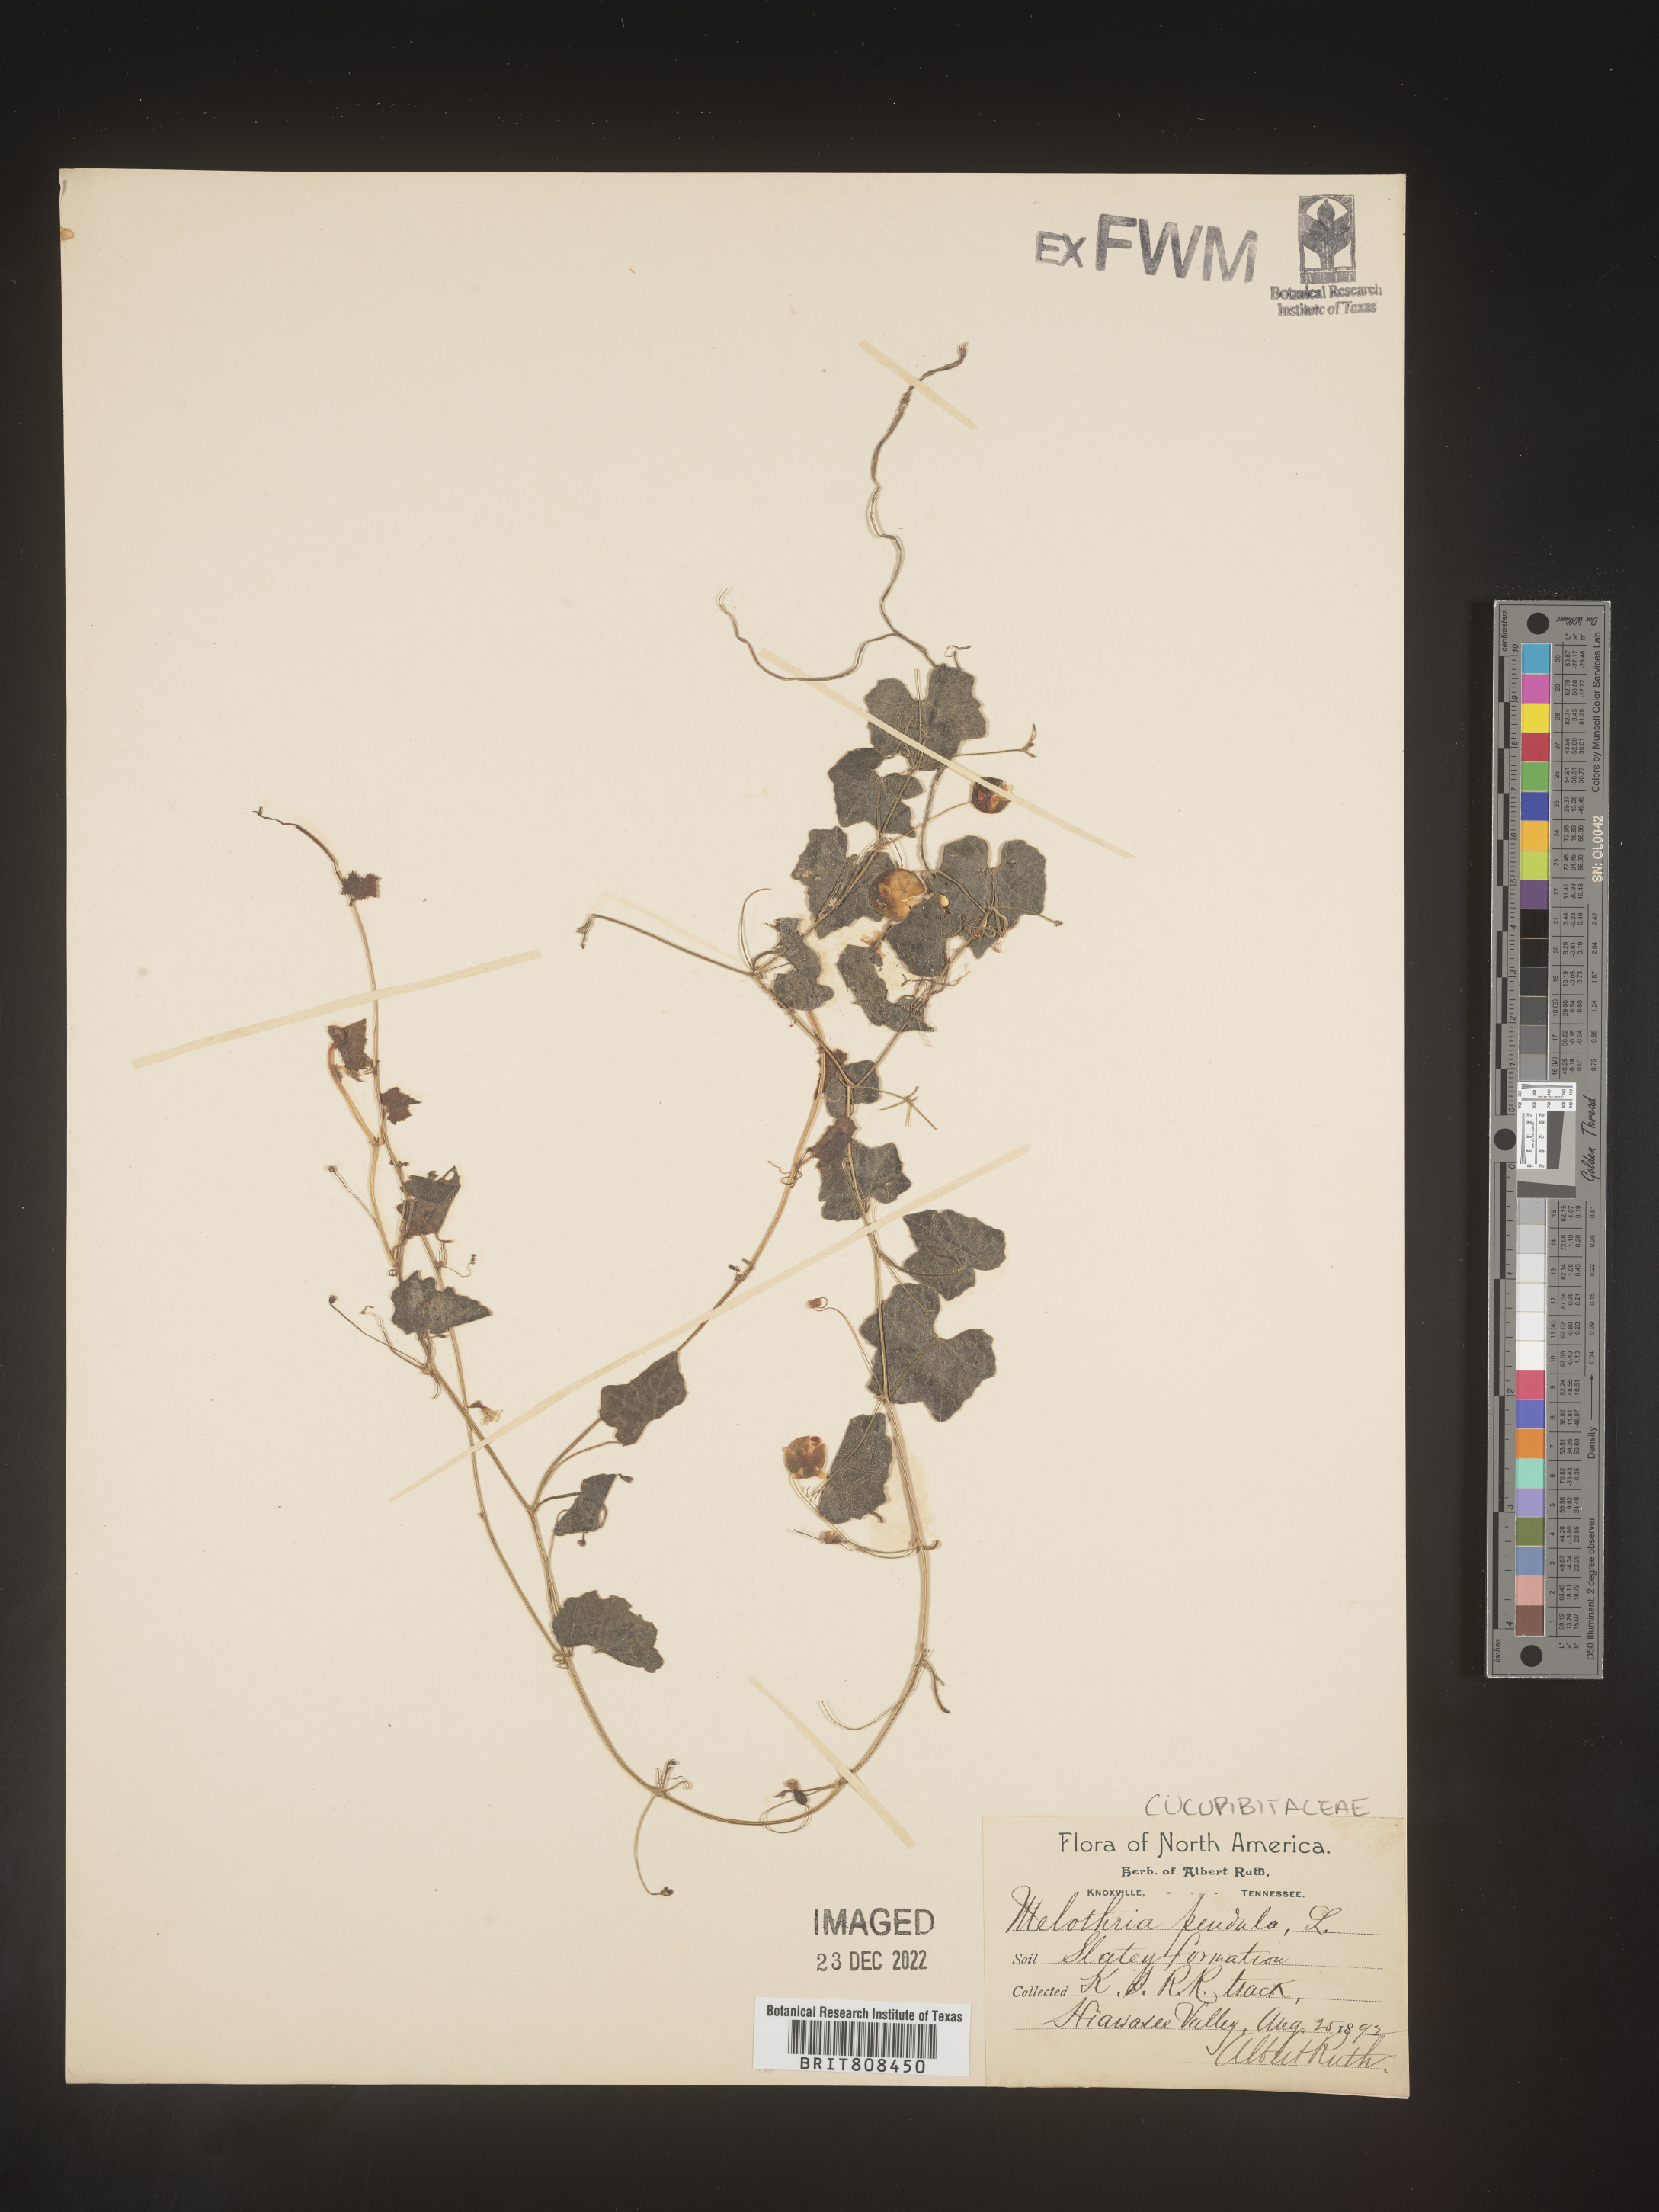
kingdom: Plantae
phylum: Tracheophyta
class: Magnoliopsida
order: Cucurbitales
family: Cucurbitaceae
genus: Melothria
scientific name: Melothria pendula
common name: Creeping-cucumber
